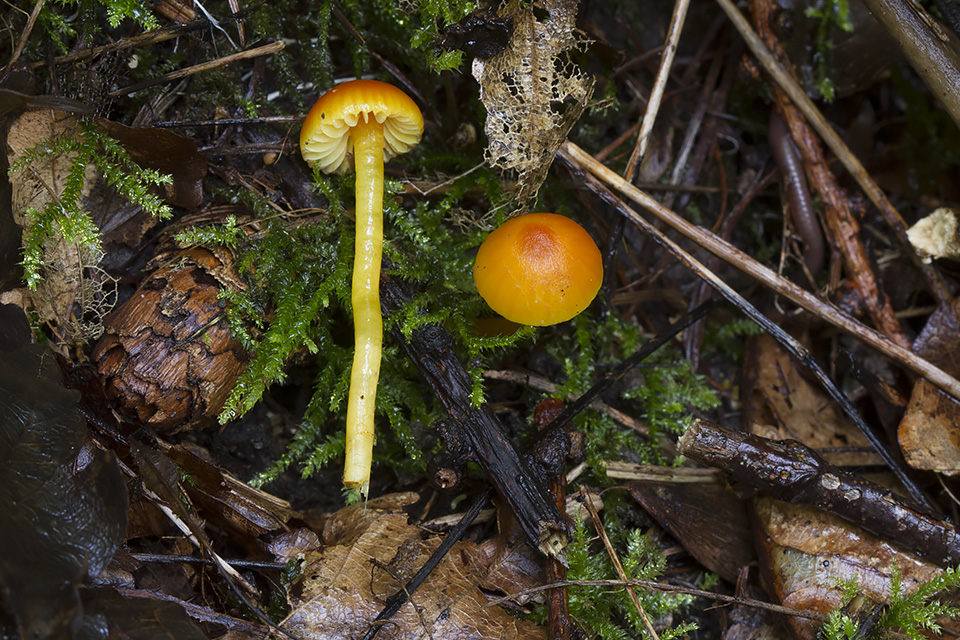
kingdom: Fungi
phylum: Basidiomycota
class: Agaricomycetes
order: Agaricales
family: Hygrophoraceae
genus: Hygrocybe
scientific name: Hygrocybe mucronella
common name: bitter vokshat
